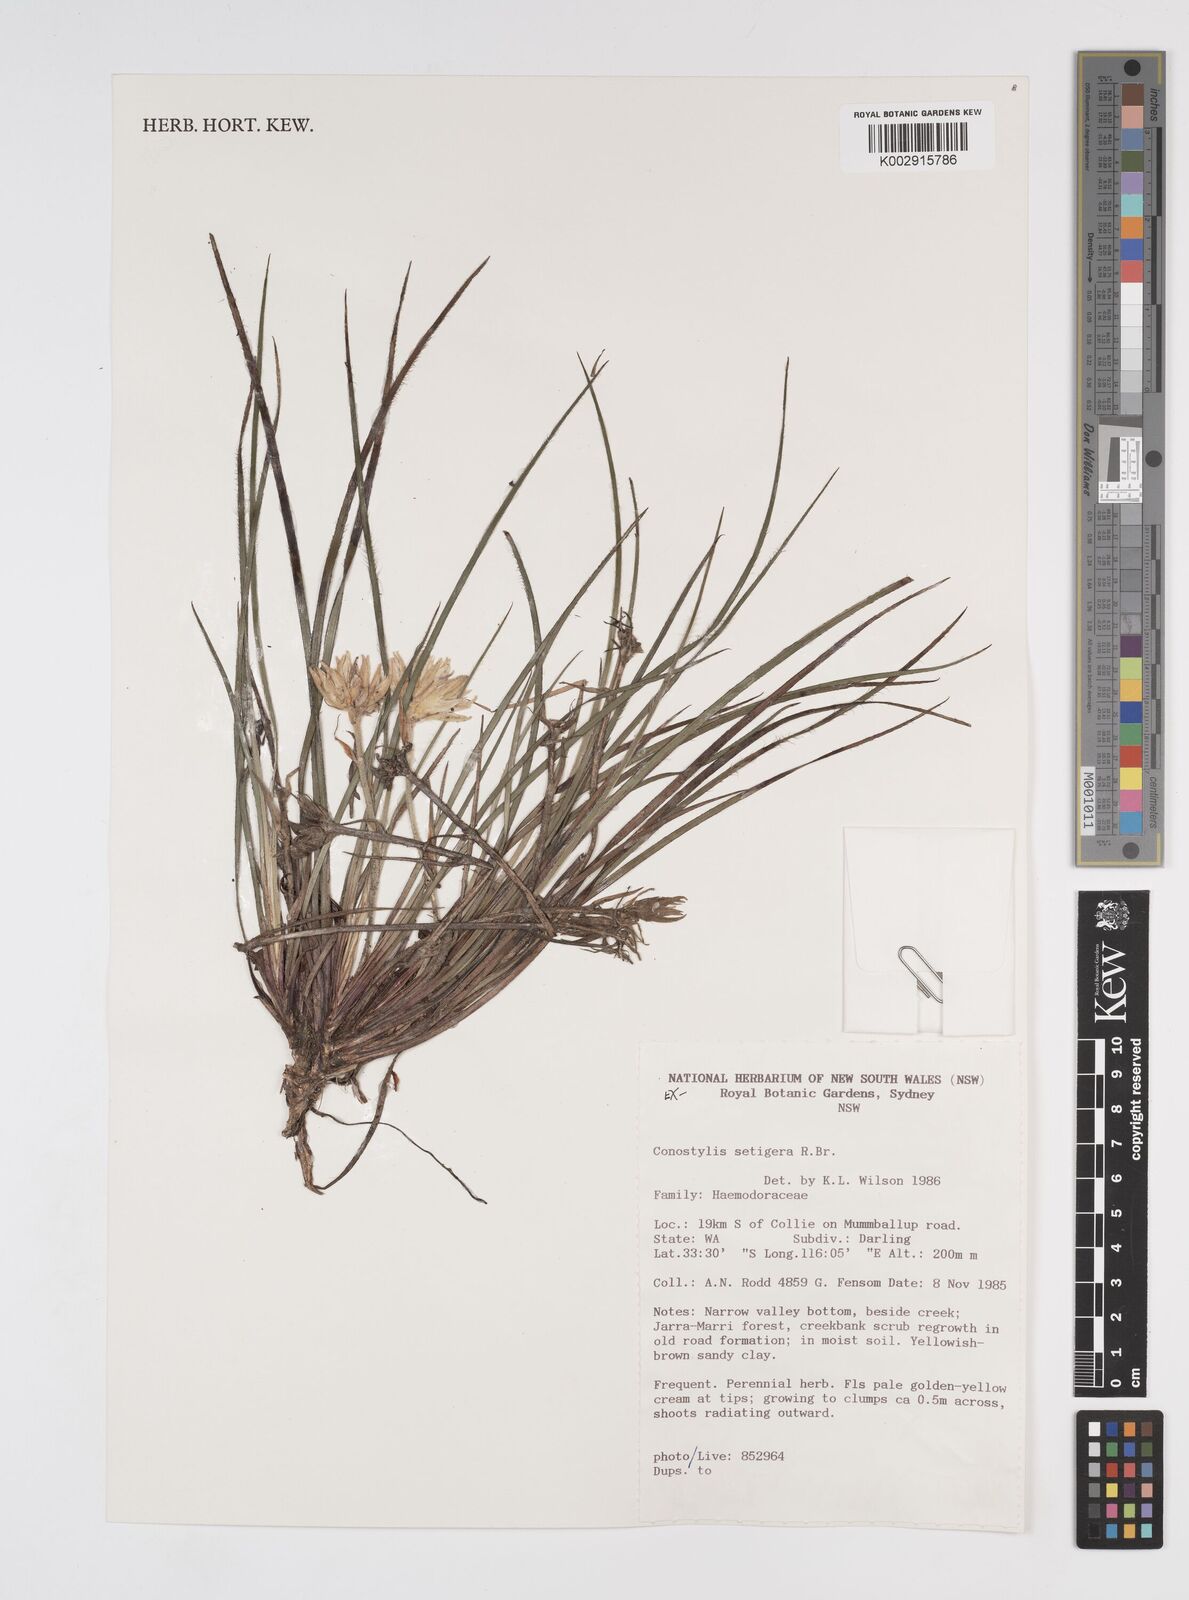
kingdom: Plantae
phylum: Tracheophyta
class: Liliopsida
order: Commelinales
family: Haemodoraceae
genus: Conostylis
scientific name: Conostylis setigera
